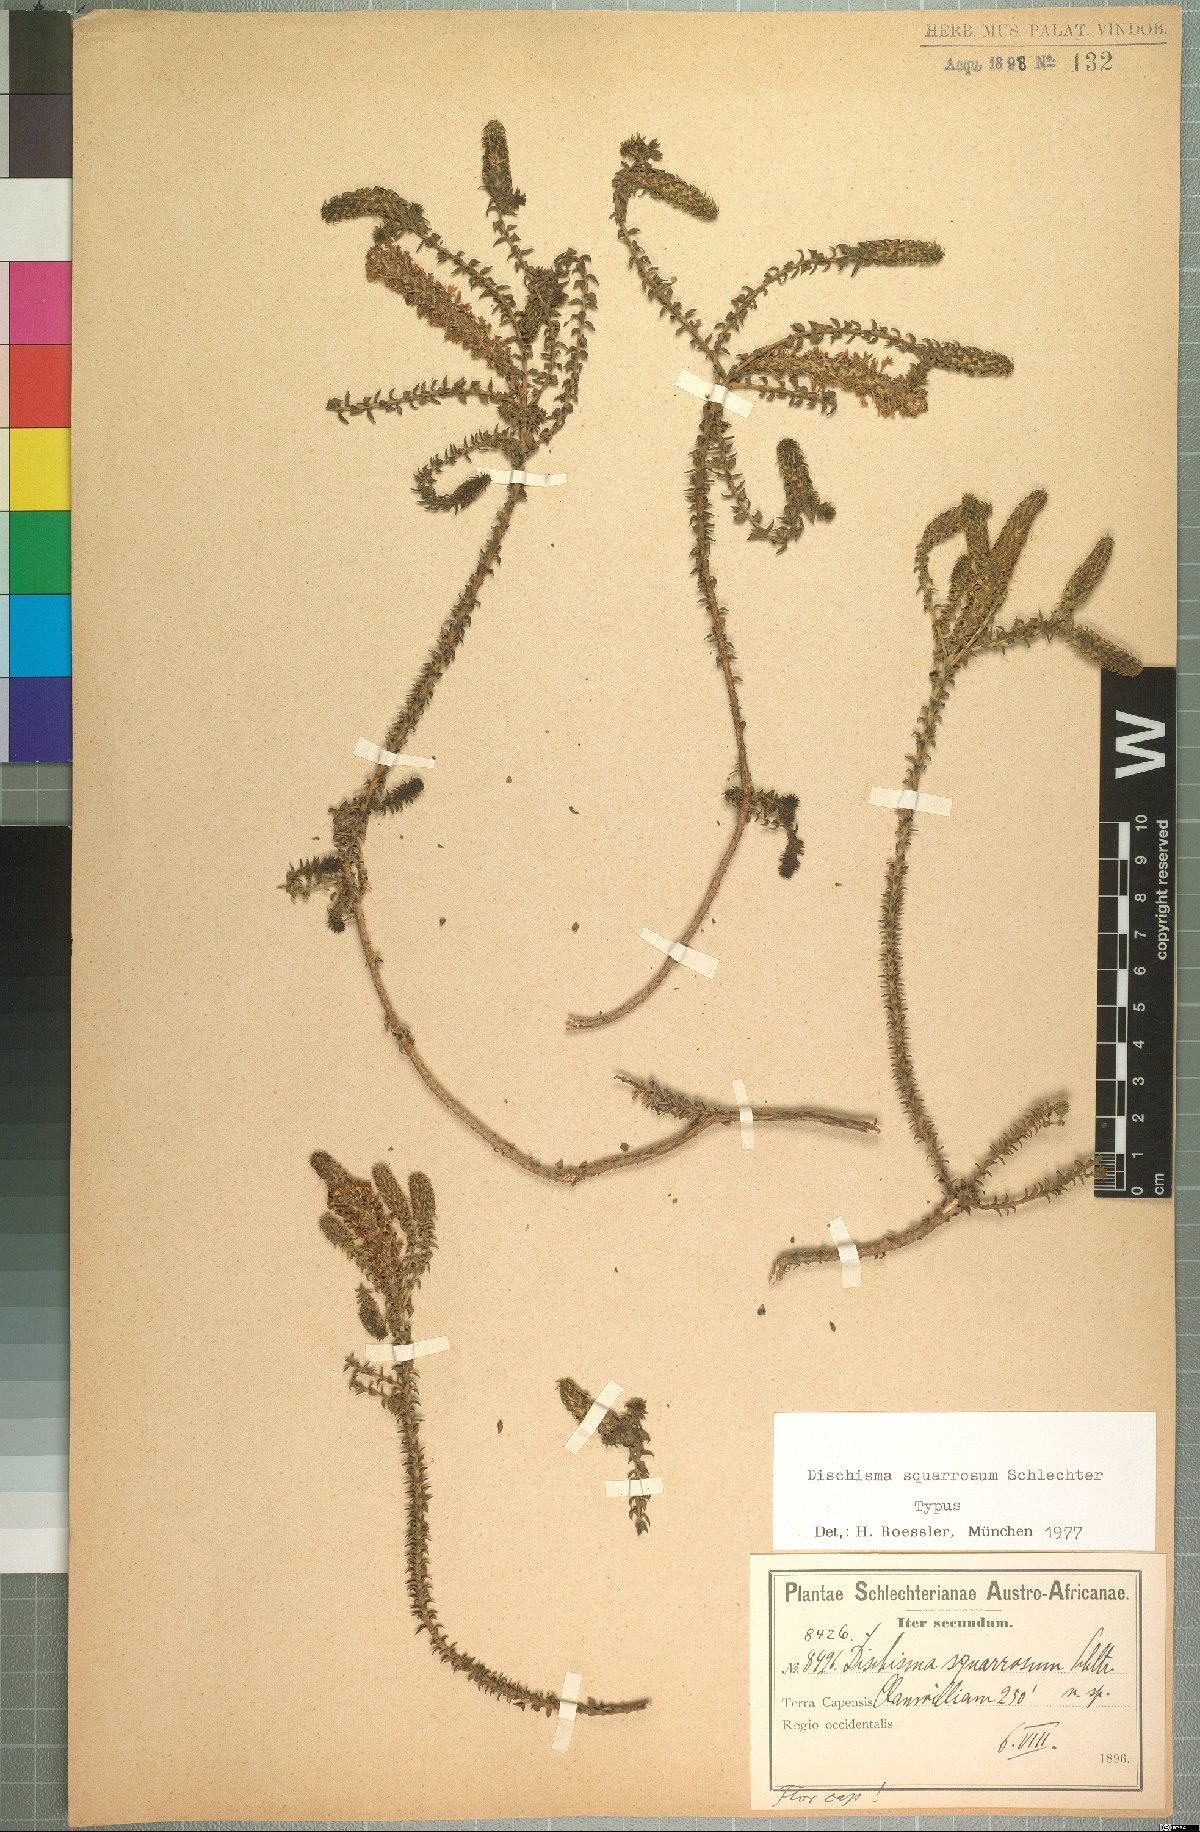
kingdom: Plantae
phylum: Tracheophyta
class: Magnoliopsida
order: Lamiales
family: Scrophulariaceae
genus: Dischisma
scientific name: Dischisma squarrosum
